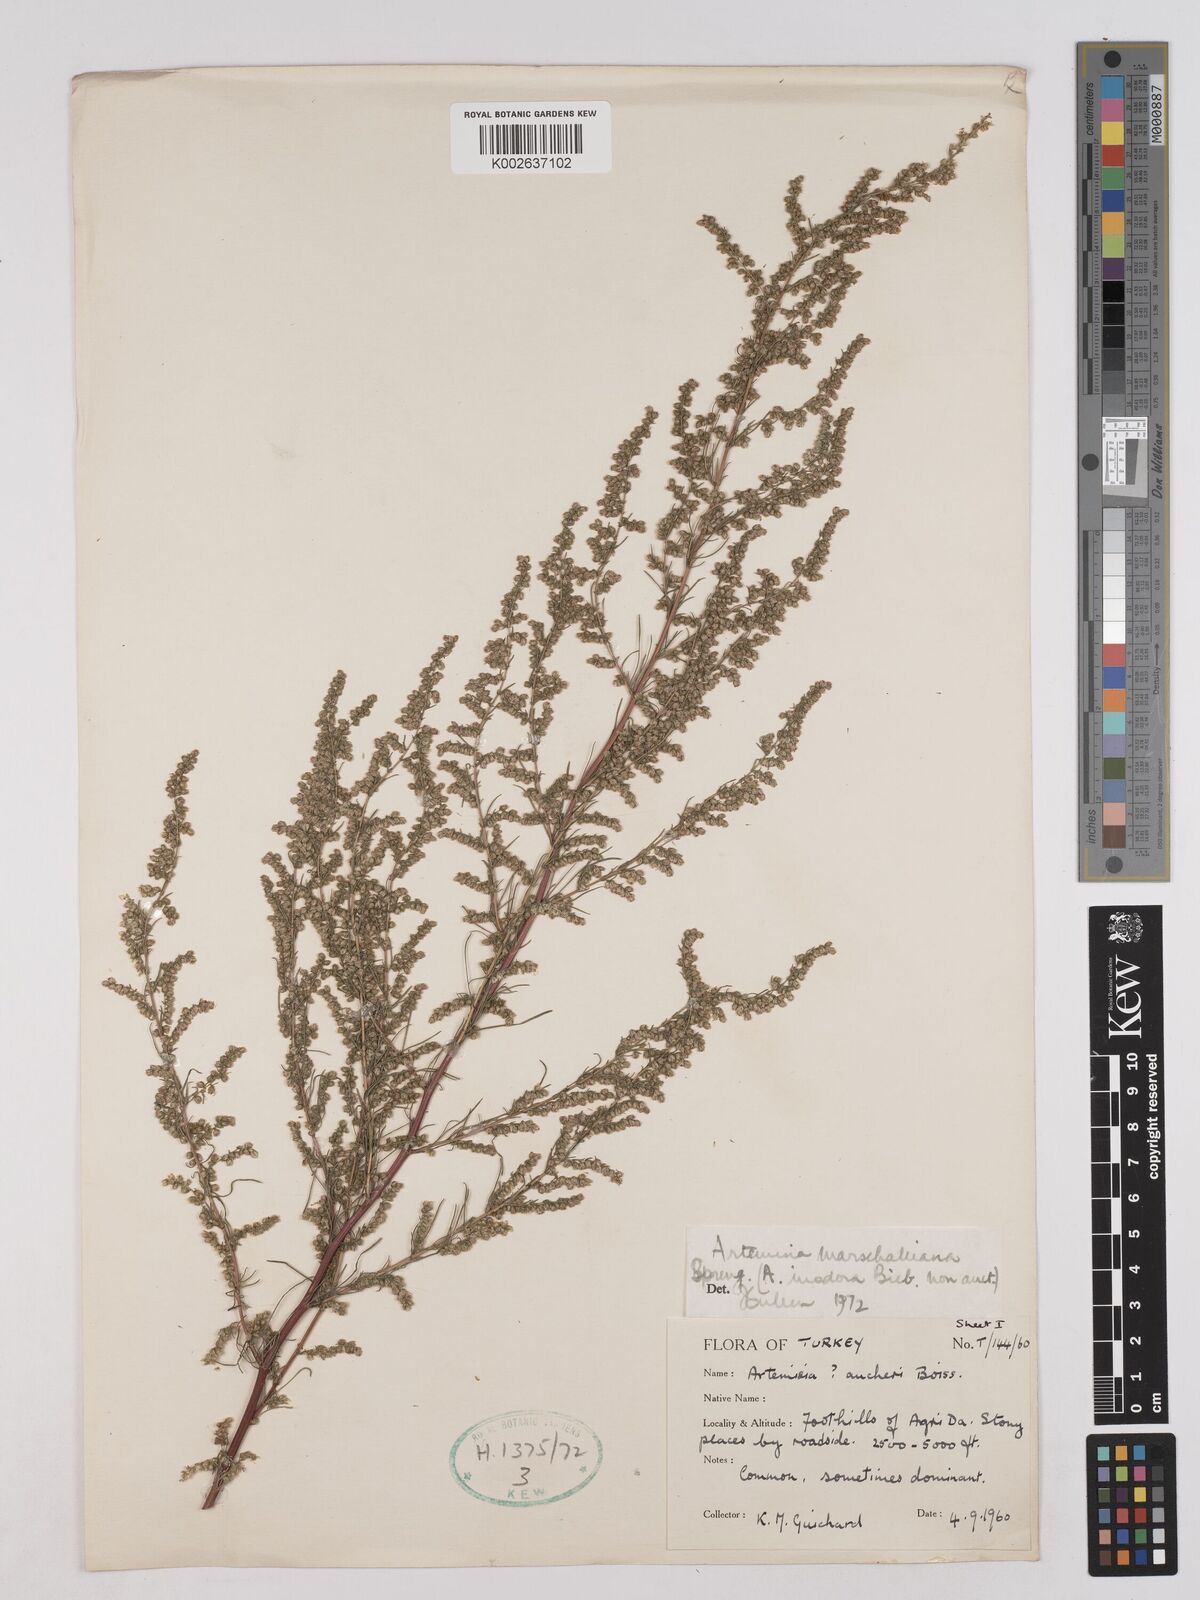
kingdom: Plantae
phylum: Tracheophyta
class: Magnoliopsida
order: Asterales
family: Asteraceae
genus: Artemisia
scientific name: Artemisia marschalliana
